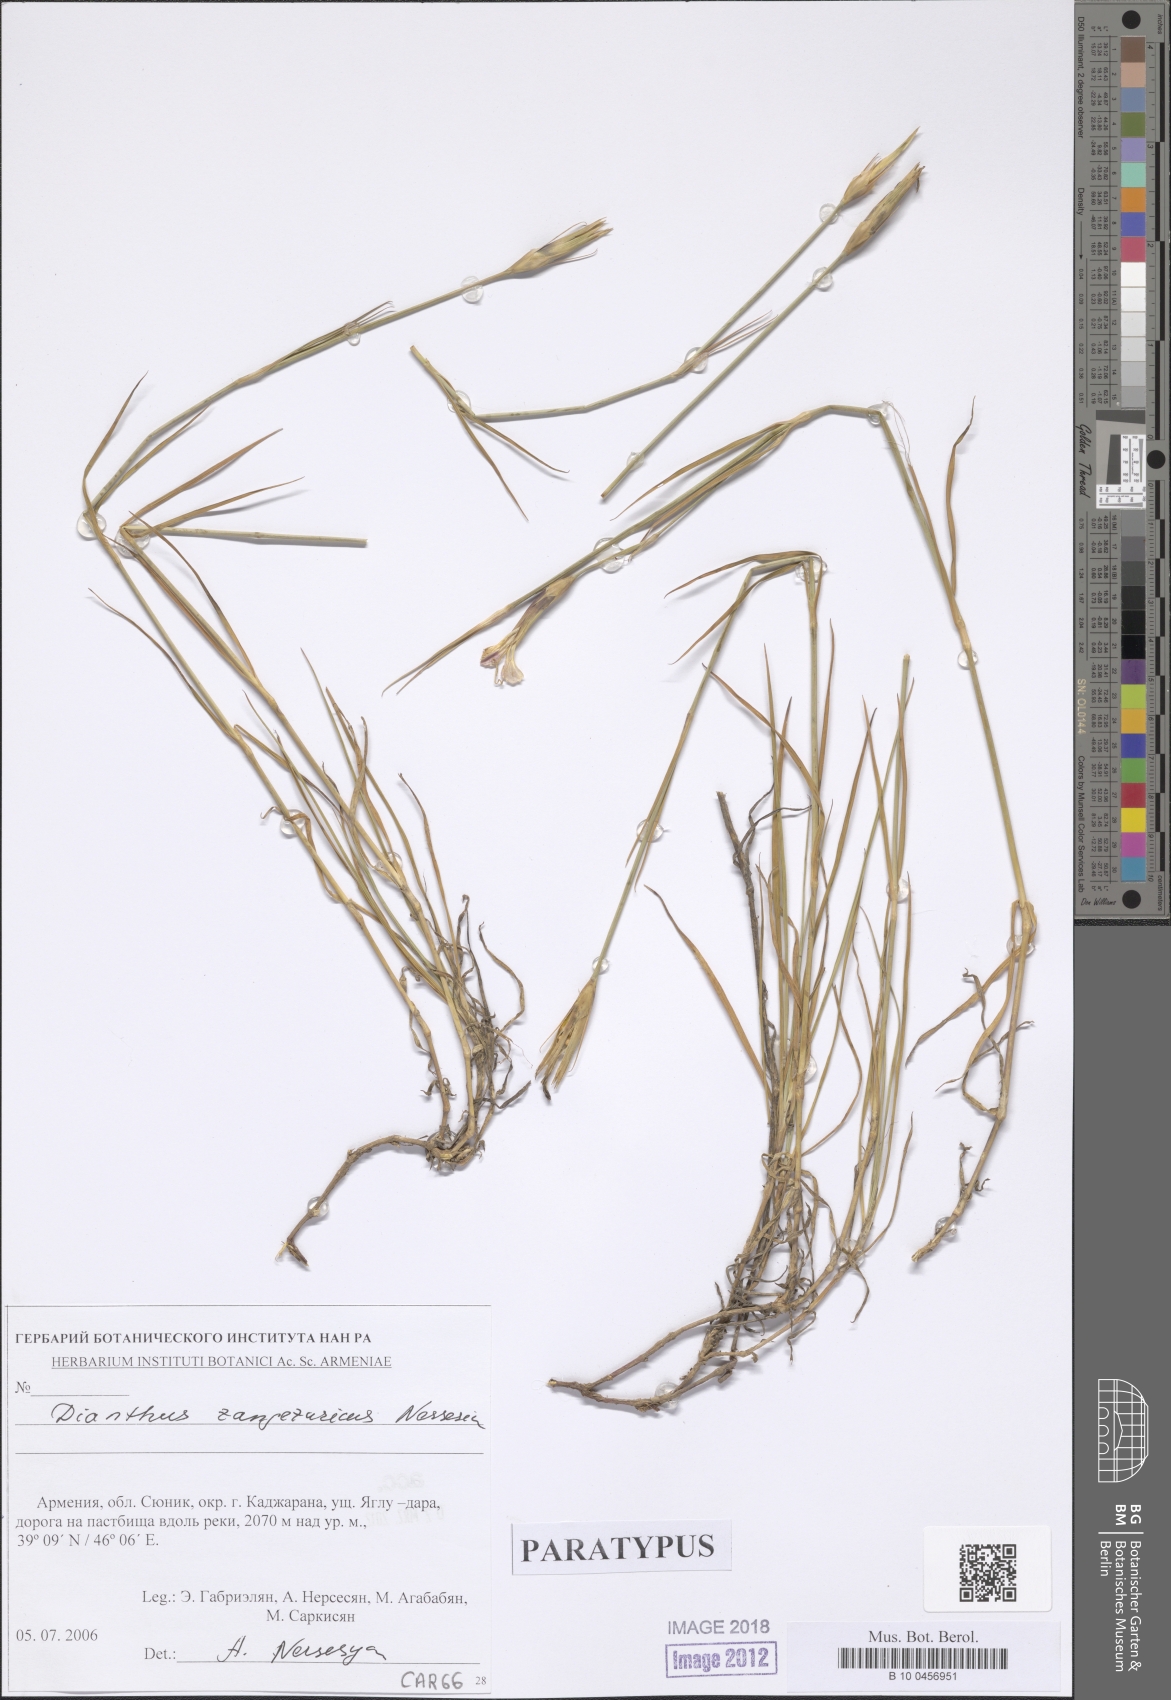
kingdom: Plantae
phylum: Tracheophyta
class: Magnoliopsida
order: Caryophyllales
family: Caryophyllaceae
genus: Dianthus
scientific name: Dianthus zangezuricus
